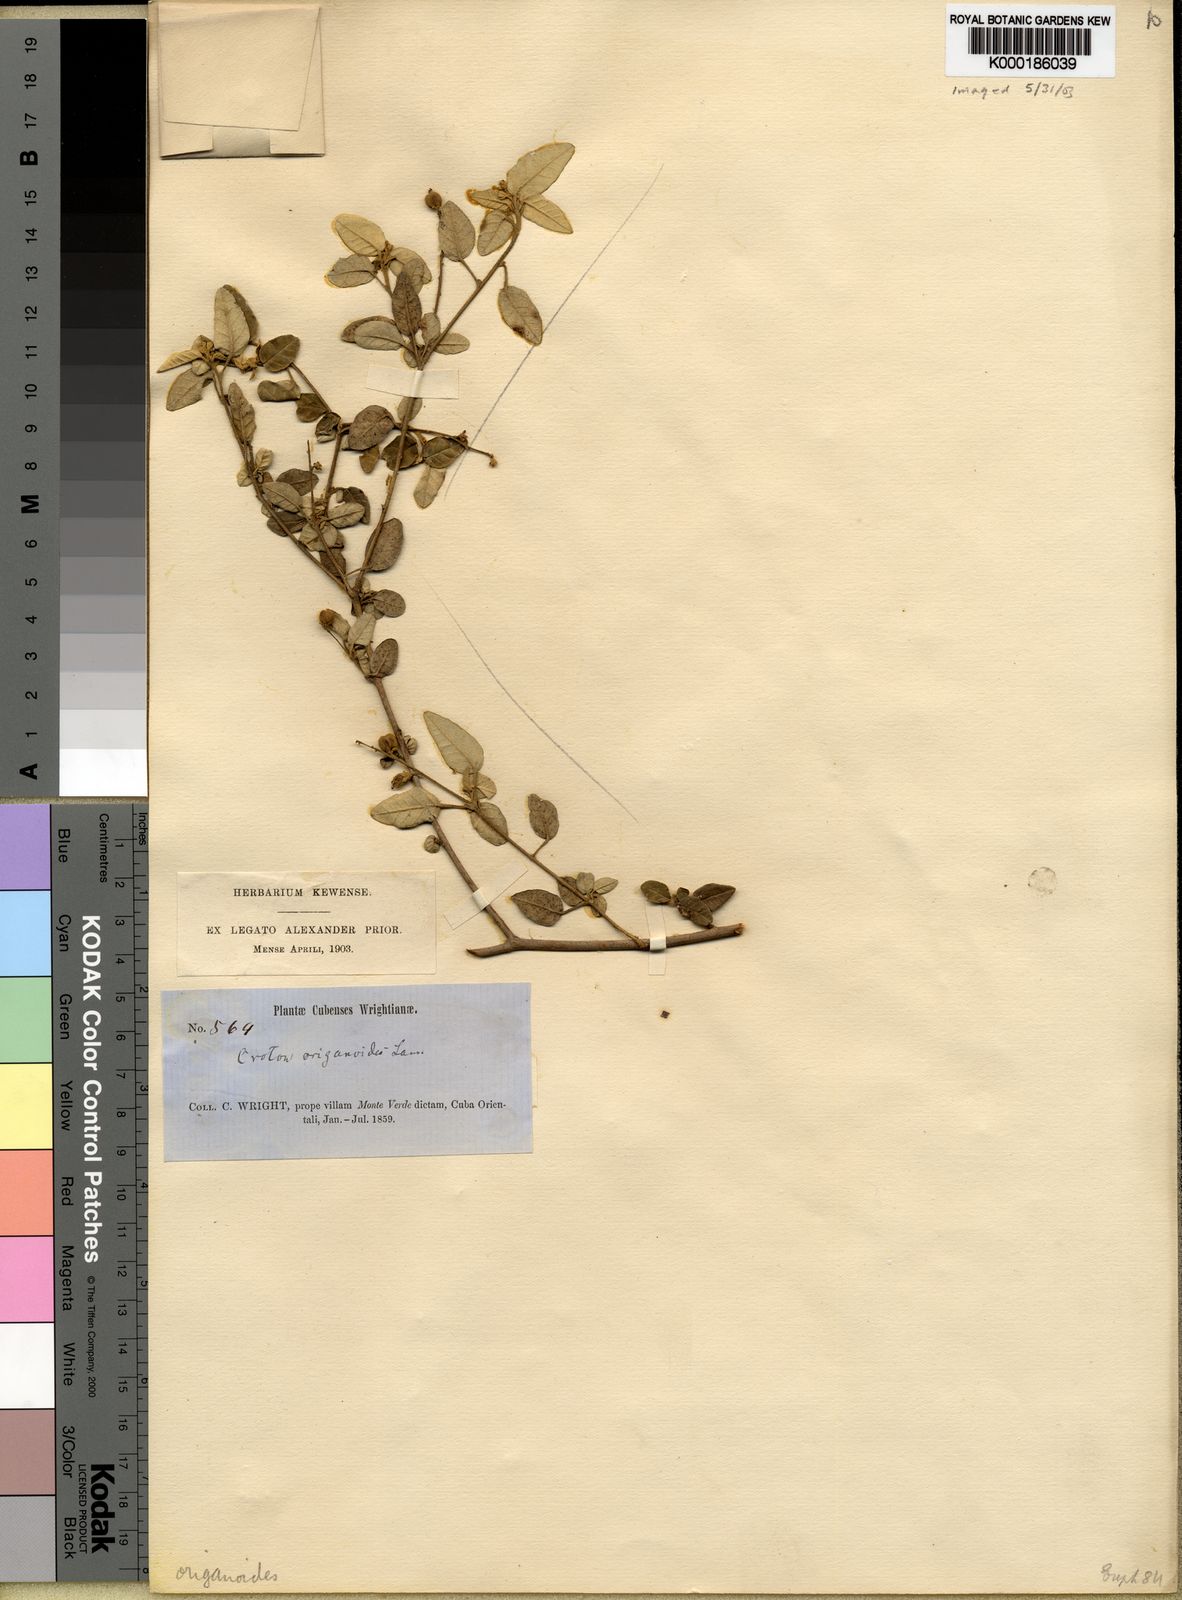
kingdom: Plantae
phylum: Tracheophyta
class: Magnoliopsida
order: Malpighiales
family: Euphorbiaceae
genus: Croton
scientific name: Croton origanifolius
